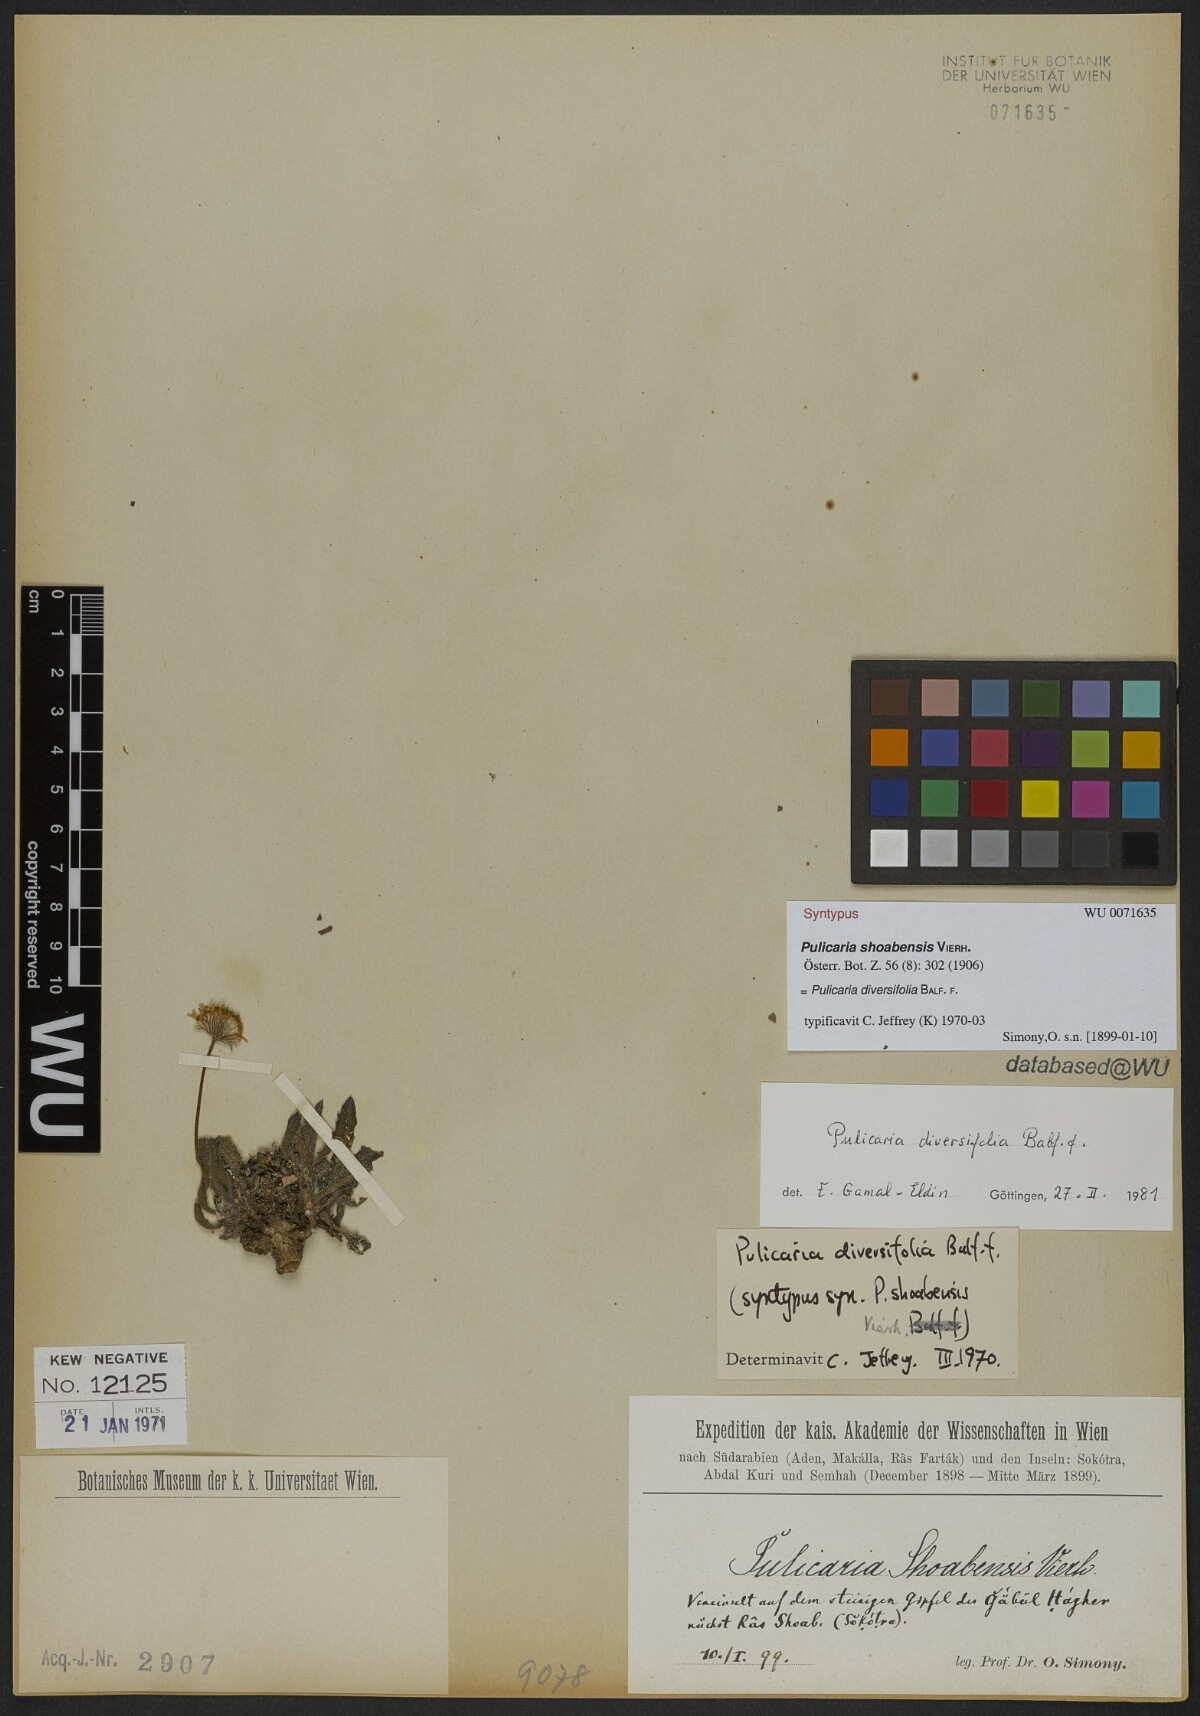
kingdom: Plantae
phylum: Tracheophyta
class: Magnoliopsida
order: Asterales
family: Asteraceae
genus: Pulicaria
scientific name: Pulicaria diversifolia
